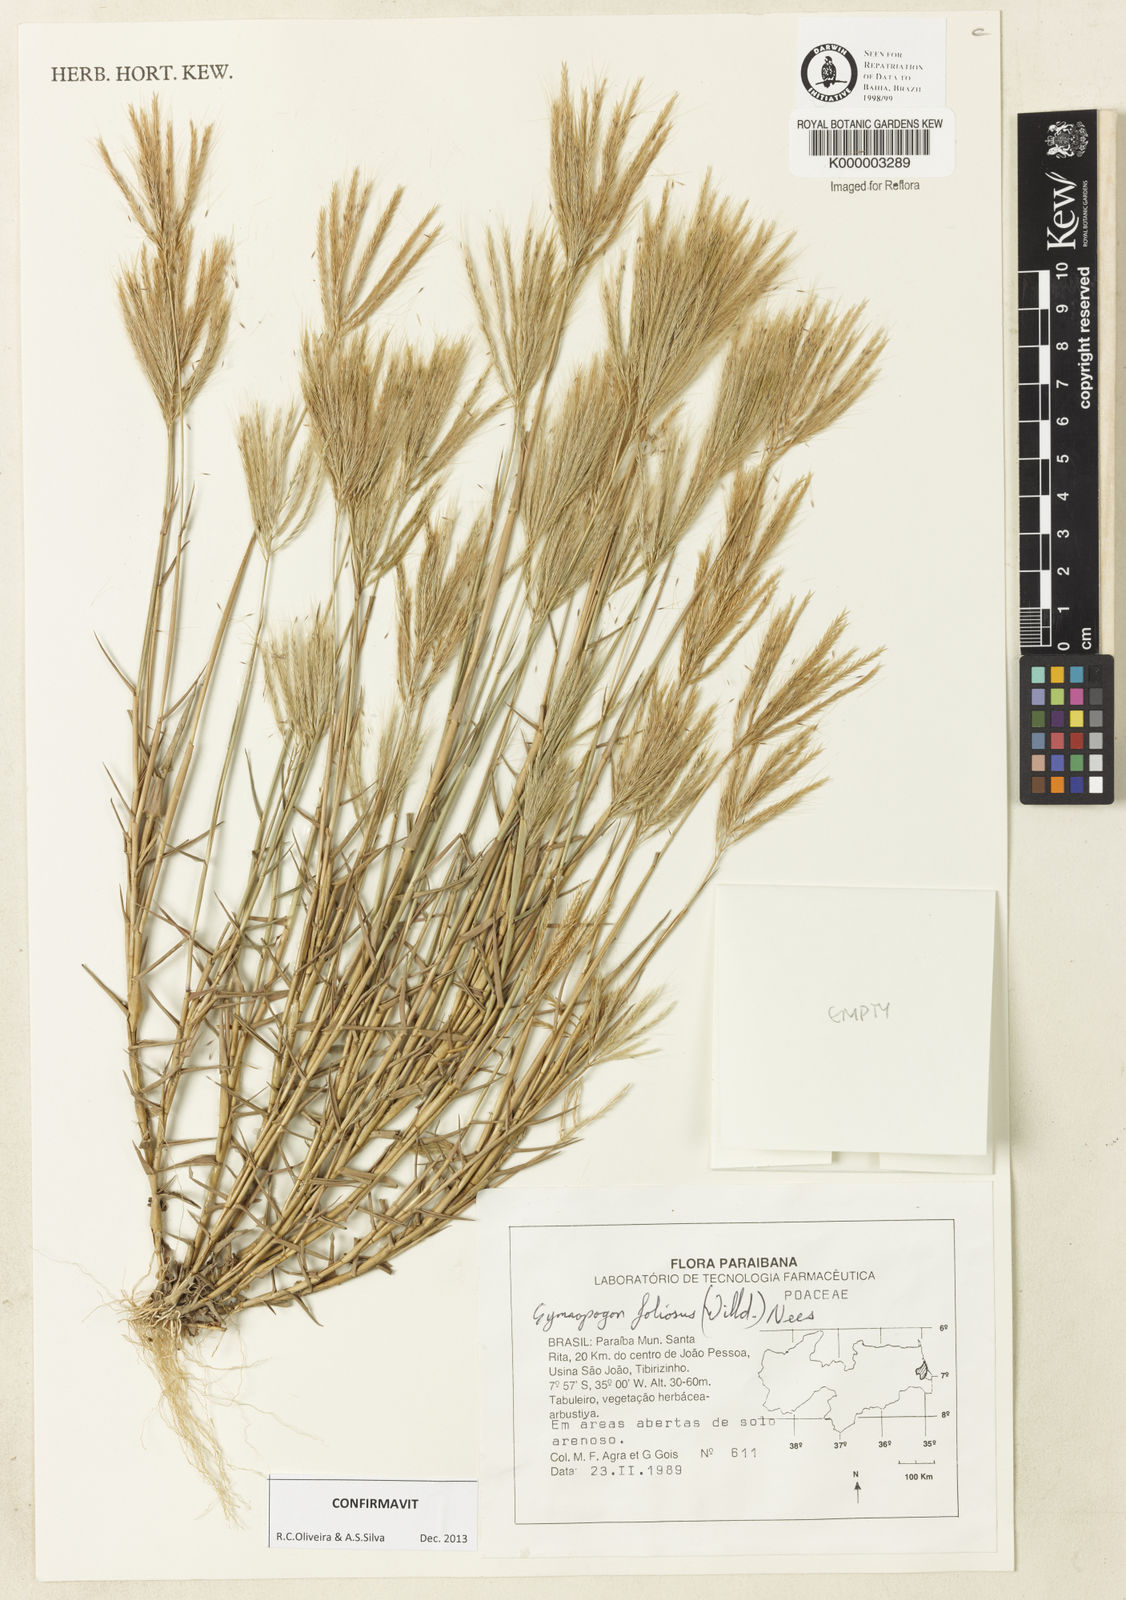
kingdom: Plantae
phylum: Tracheophyta
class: Liliopsida
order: Poales
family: Poaceae
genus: Gymnopogon
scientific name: Gymnopogon foliosus
